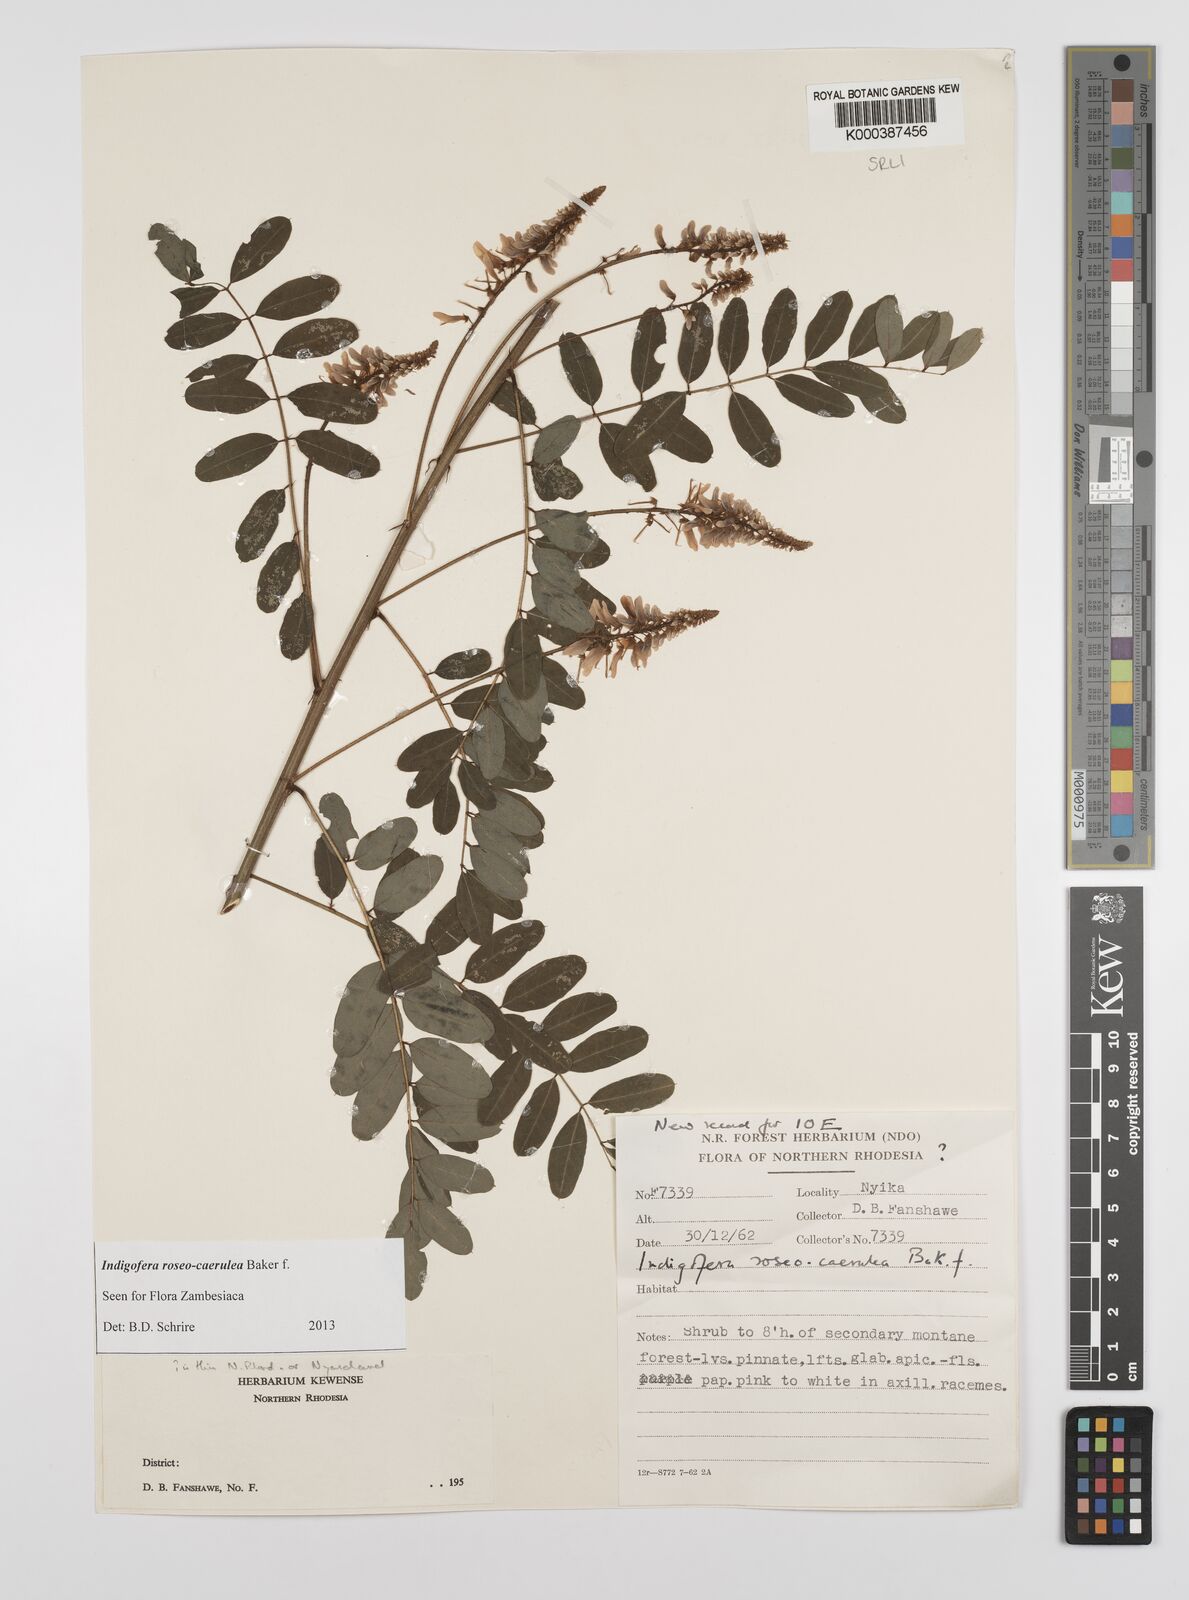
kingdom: Plantae
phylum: Tracheophyta
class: Magnoliopsida
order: Fabales
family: Fabaceae
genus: Indigofera
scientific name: Indigofera roseocaerulea
